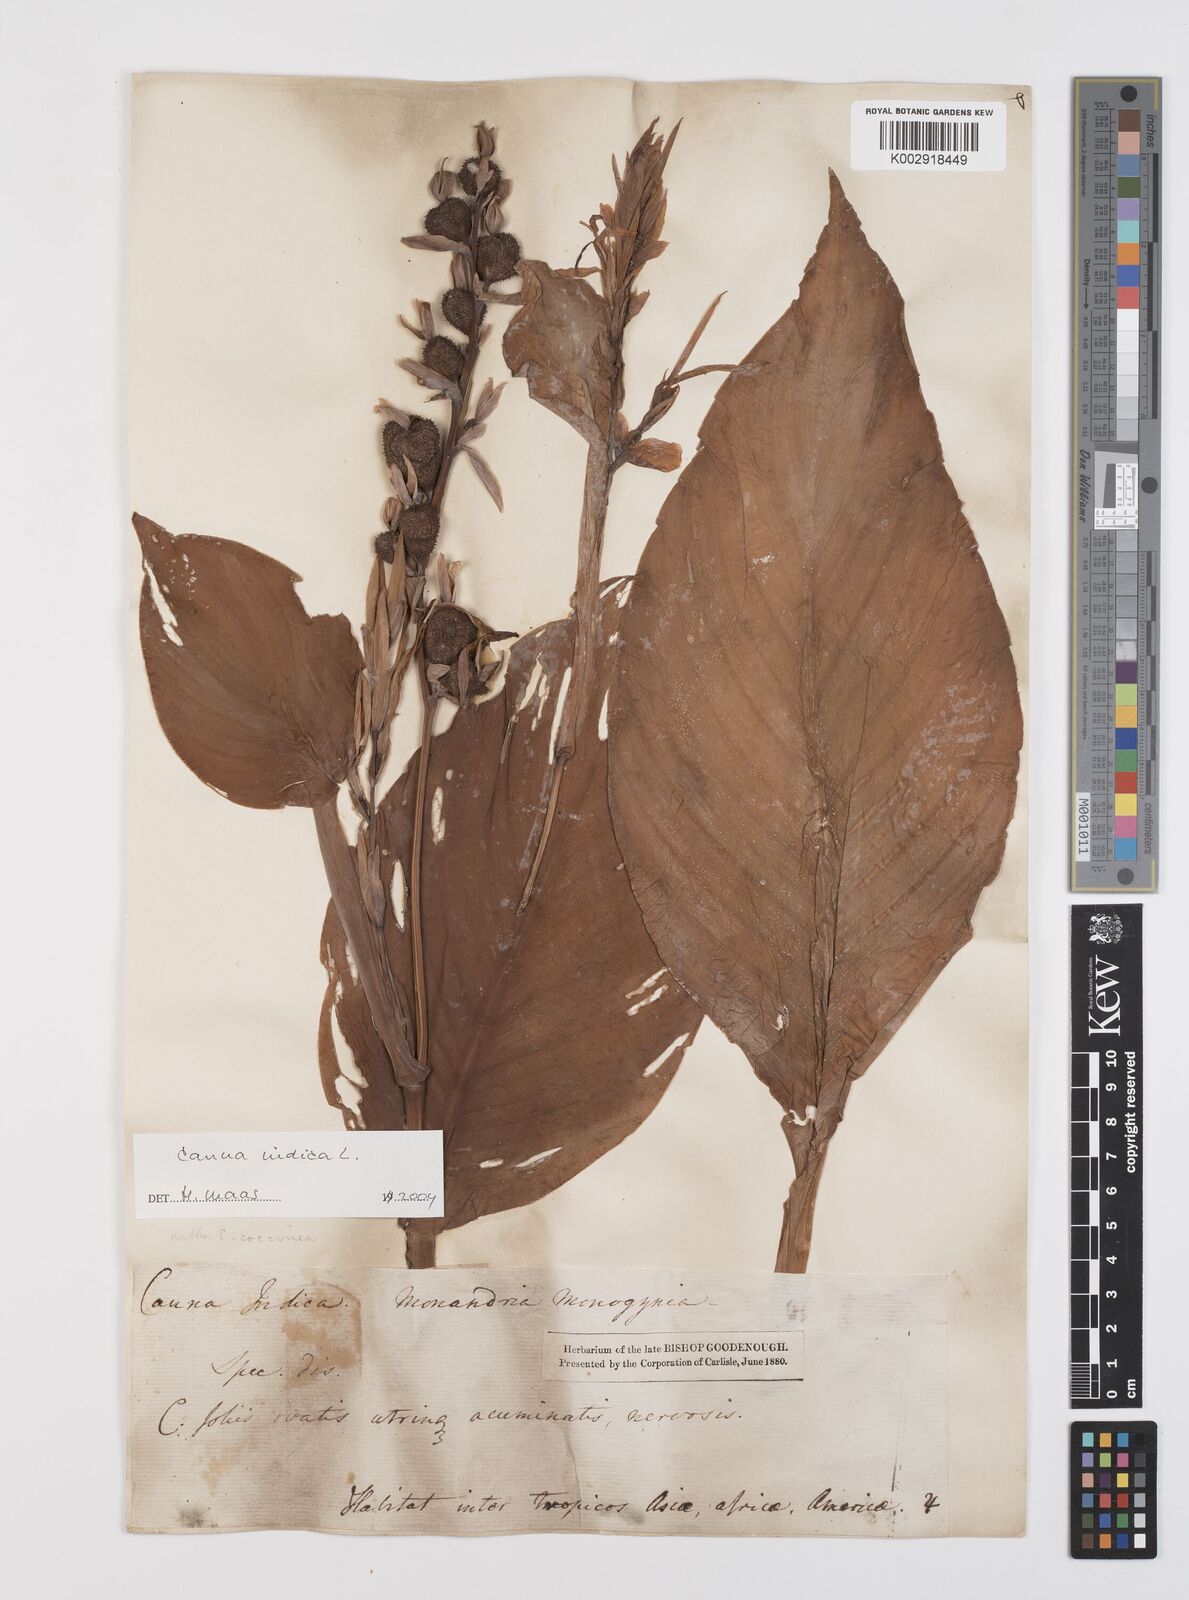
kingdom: Plantae
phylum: Tracheophyta
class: Liliopsida
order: Zingiberales
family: Cannaceae
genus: Canna
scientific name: Canna indica
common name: Indian shot
